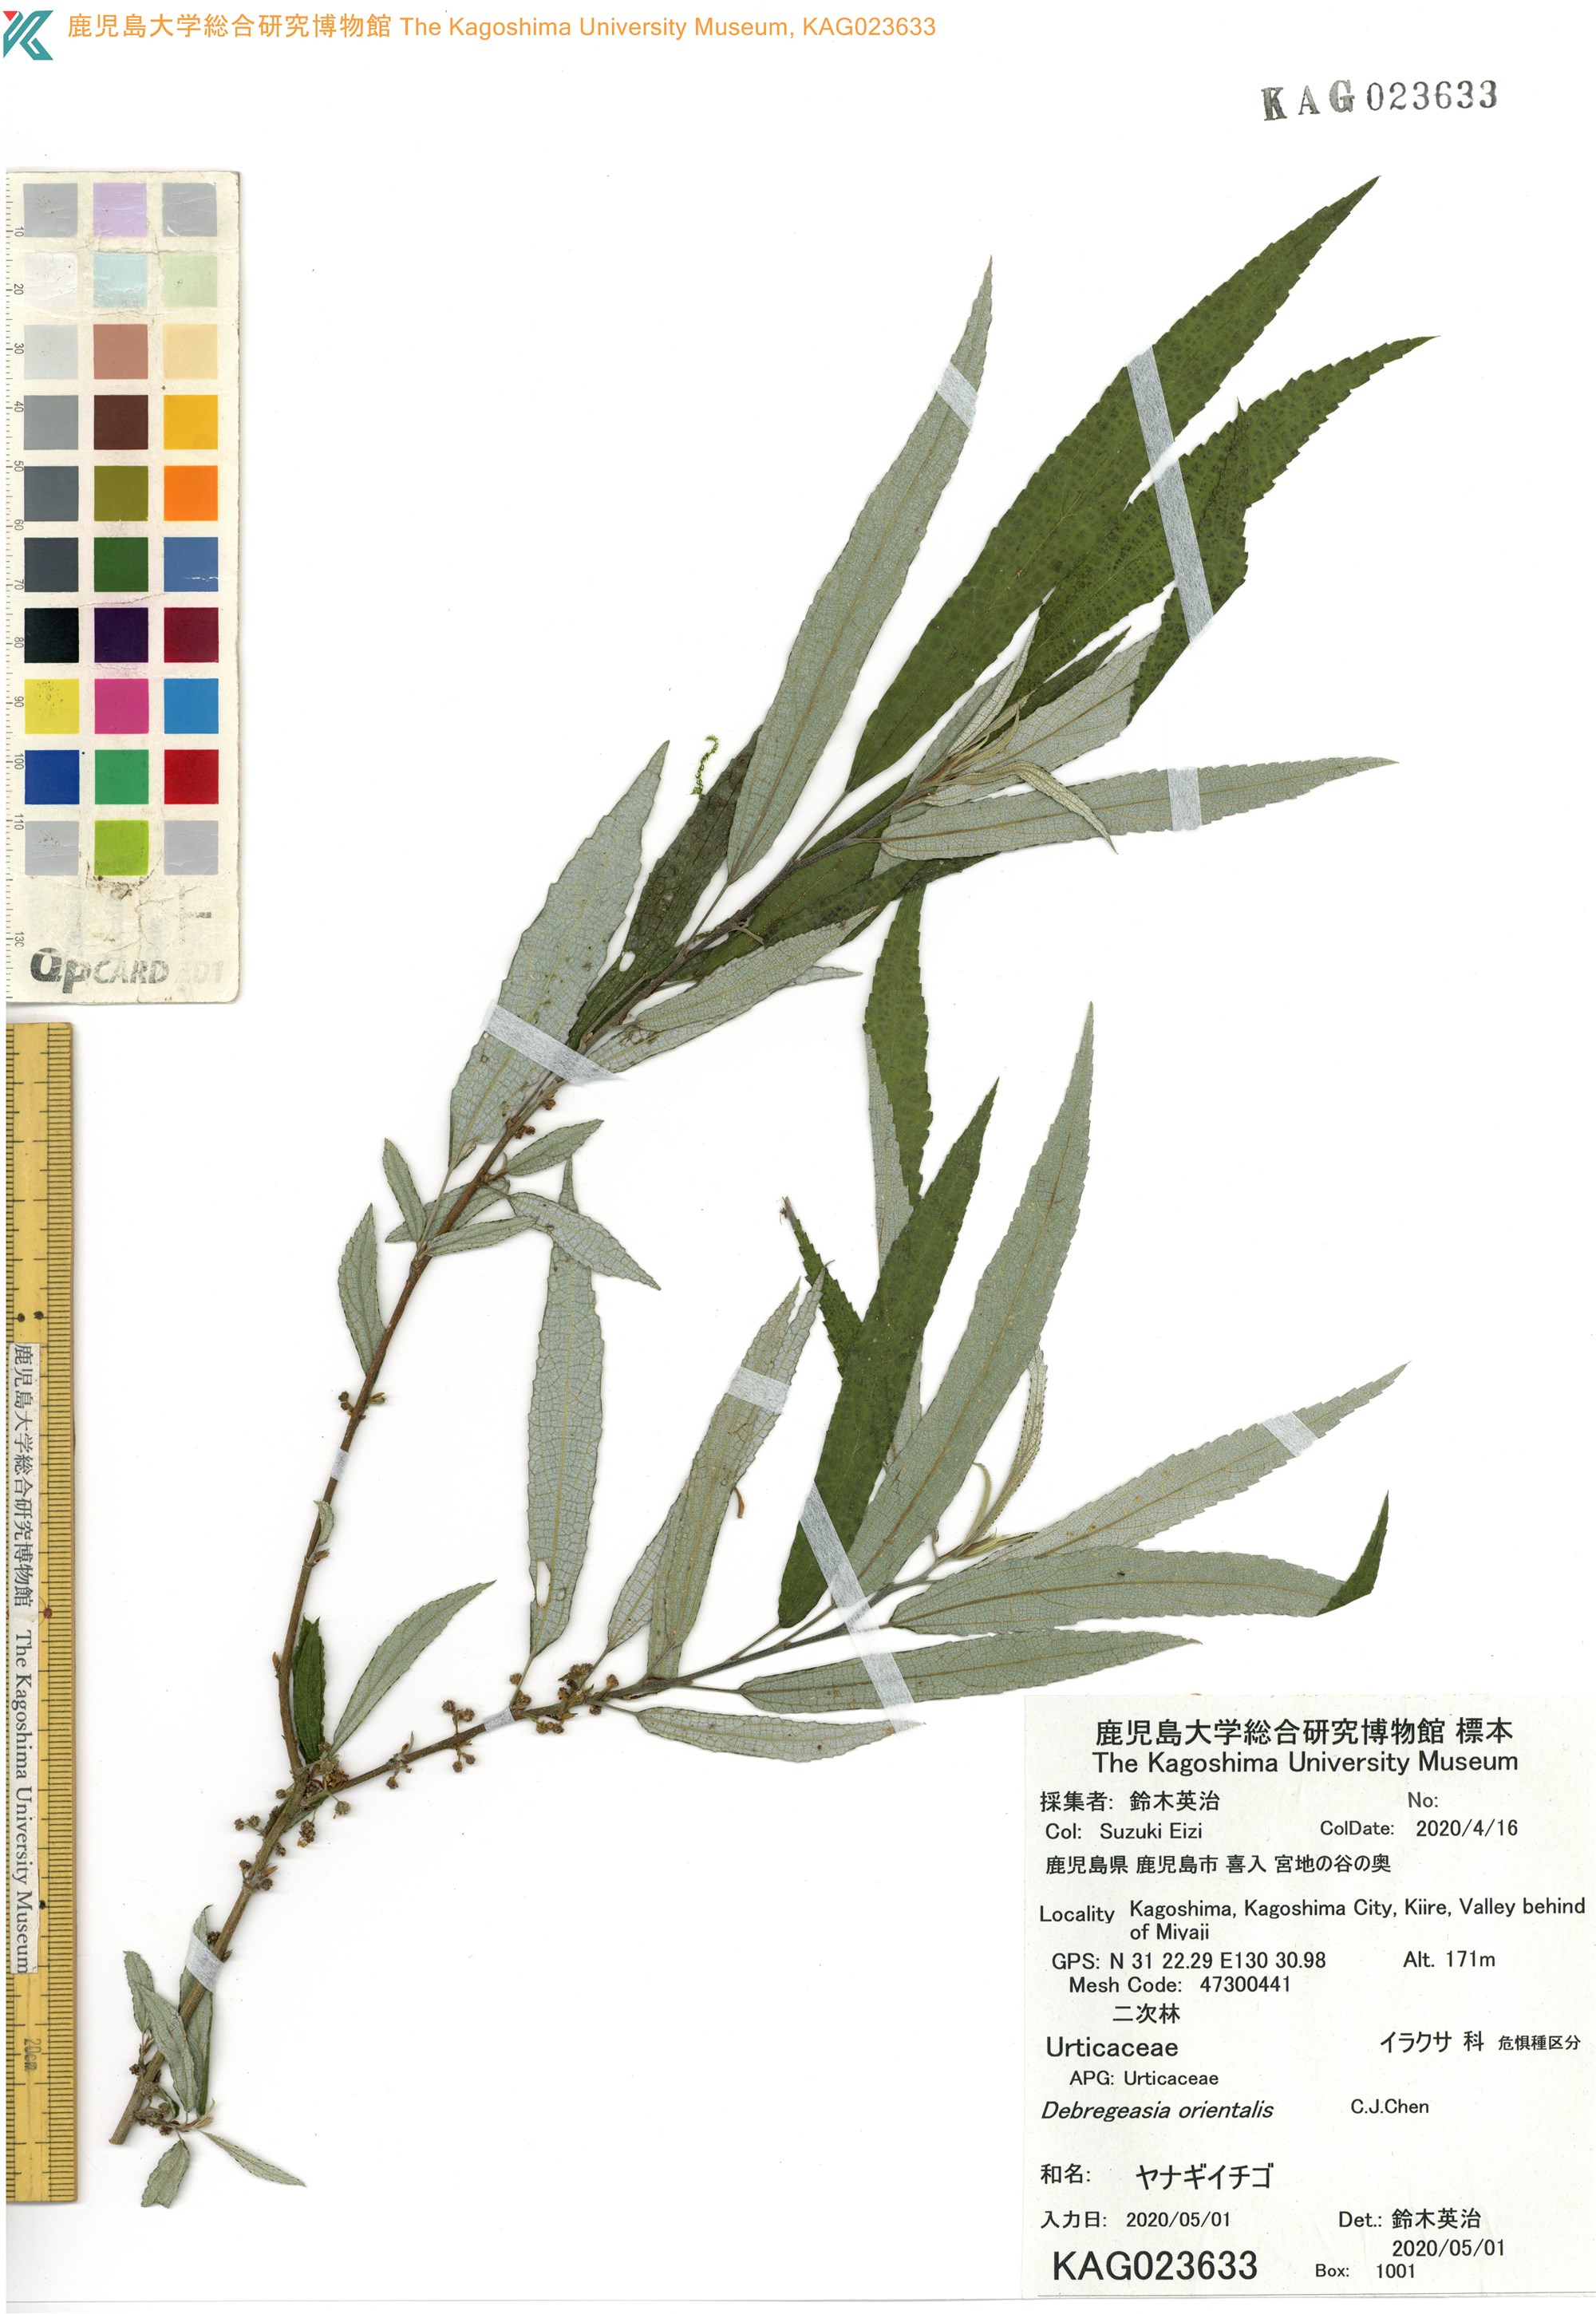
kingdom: Plantae
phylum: Tracheophyta
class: Magnoliopsida
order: Rosales
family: Urticaceae
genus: Debregeasia
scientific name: Debregeasia orientalis
